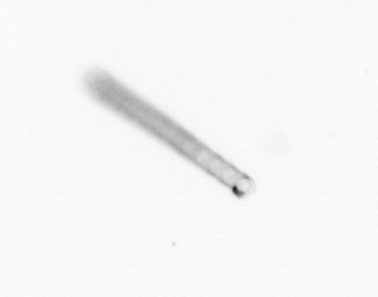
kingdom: Chromista
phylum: Ochrophyta
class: Bacillariophyceae
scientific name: Bacillariophyceae
